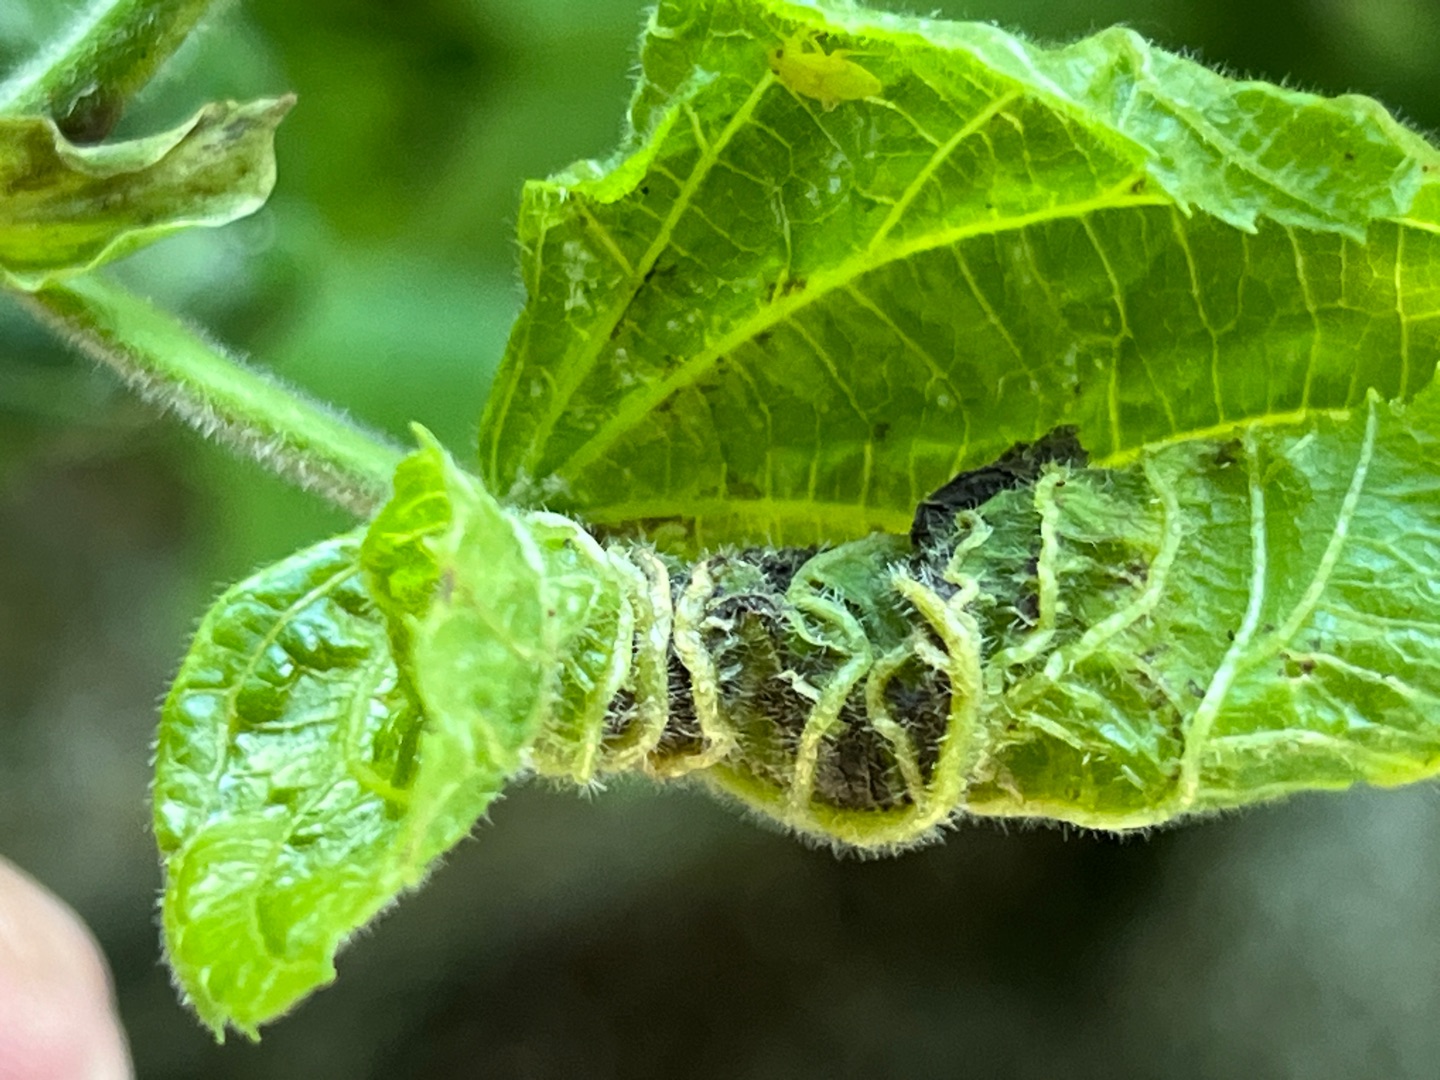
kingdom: Animalia
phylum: Arthropoda
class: Insecta
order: Diptera
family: Cecidomyiidae
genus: Dasineura
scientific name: Dasineura thomasiana
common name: Lindekrusegalmyg
